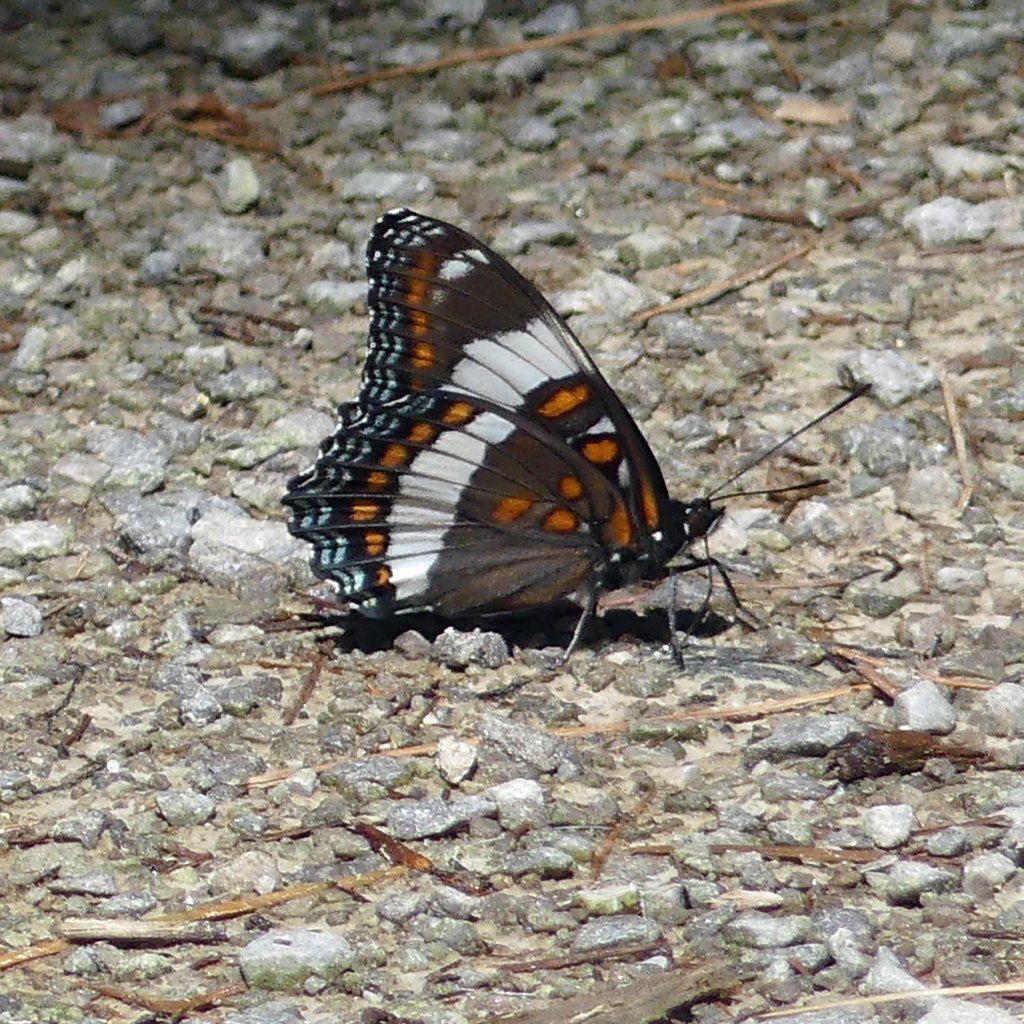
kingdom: Animalia
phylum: Arthropoda
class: Insecta
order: Lepidoptera
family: Nymphalidae
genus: Limenitis
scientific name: Limenitis arthemis
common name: Red-spotted Admiral
